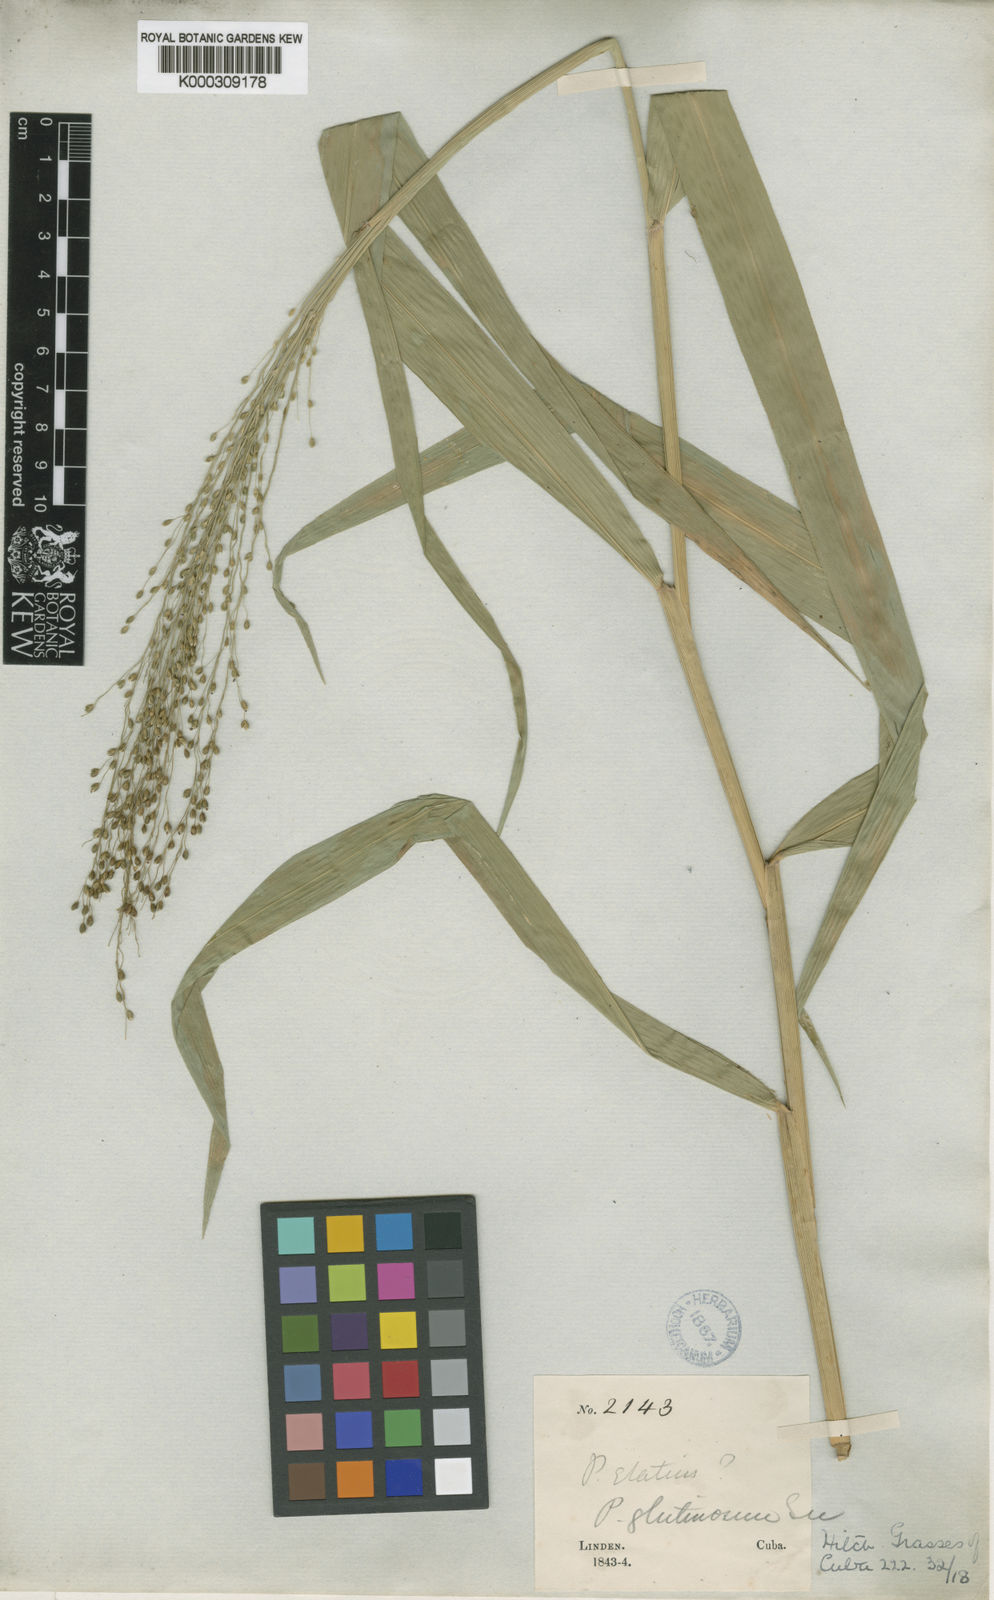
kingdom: Plantae
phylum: Tracheophyta
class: Liliopsida
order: Poales
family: Poaceae
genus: Homolepis
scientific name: Homolepis glutinosa
